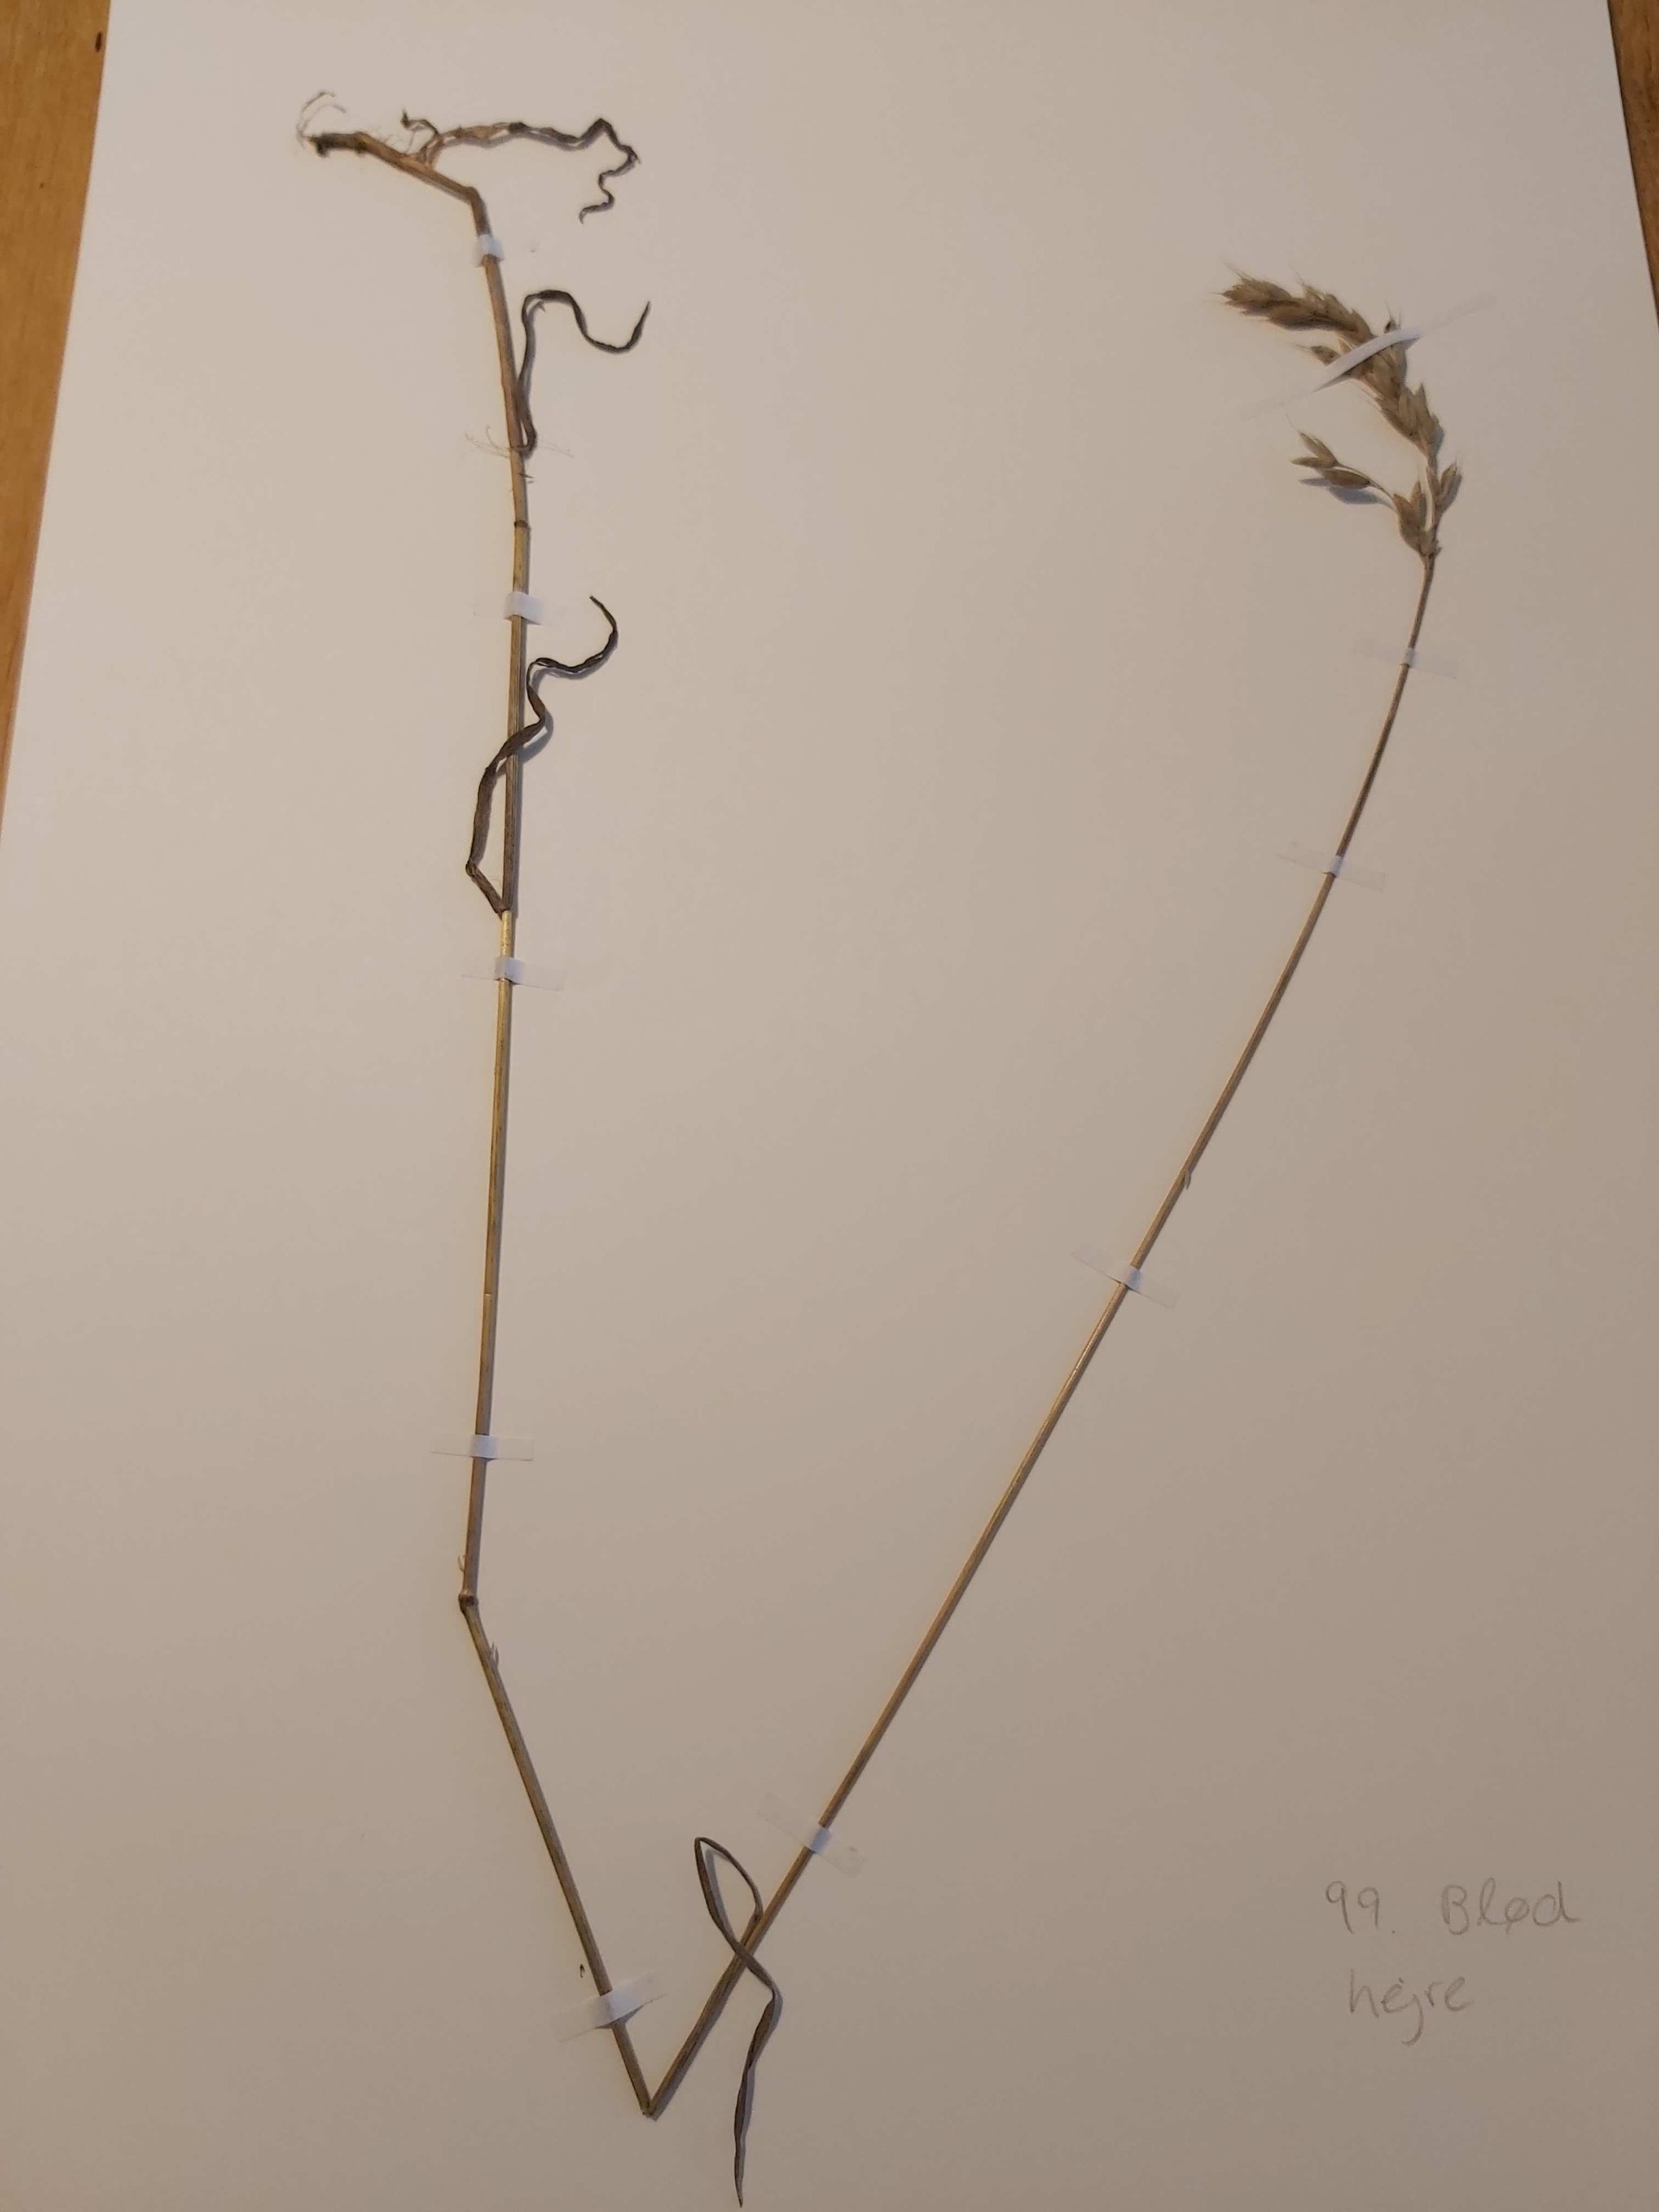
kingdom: Plantae
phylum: Tracheophyta
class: Liliopsida
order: Poales
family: Poaceae
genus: Bromus
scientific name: Bromus hordeaceus
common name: Blød hejre
